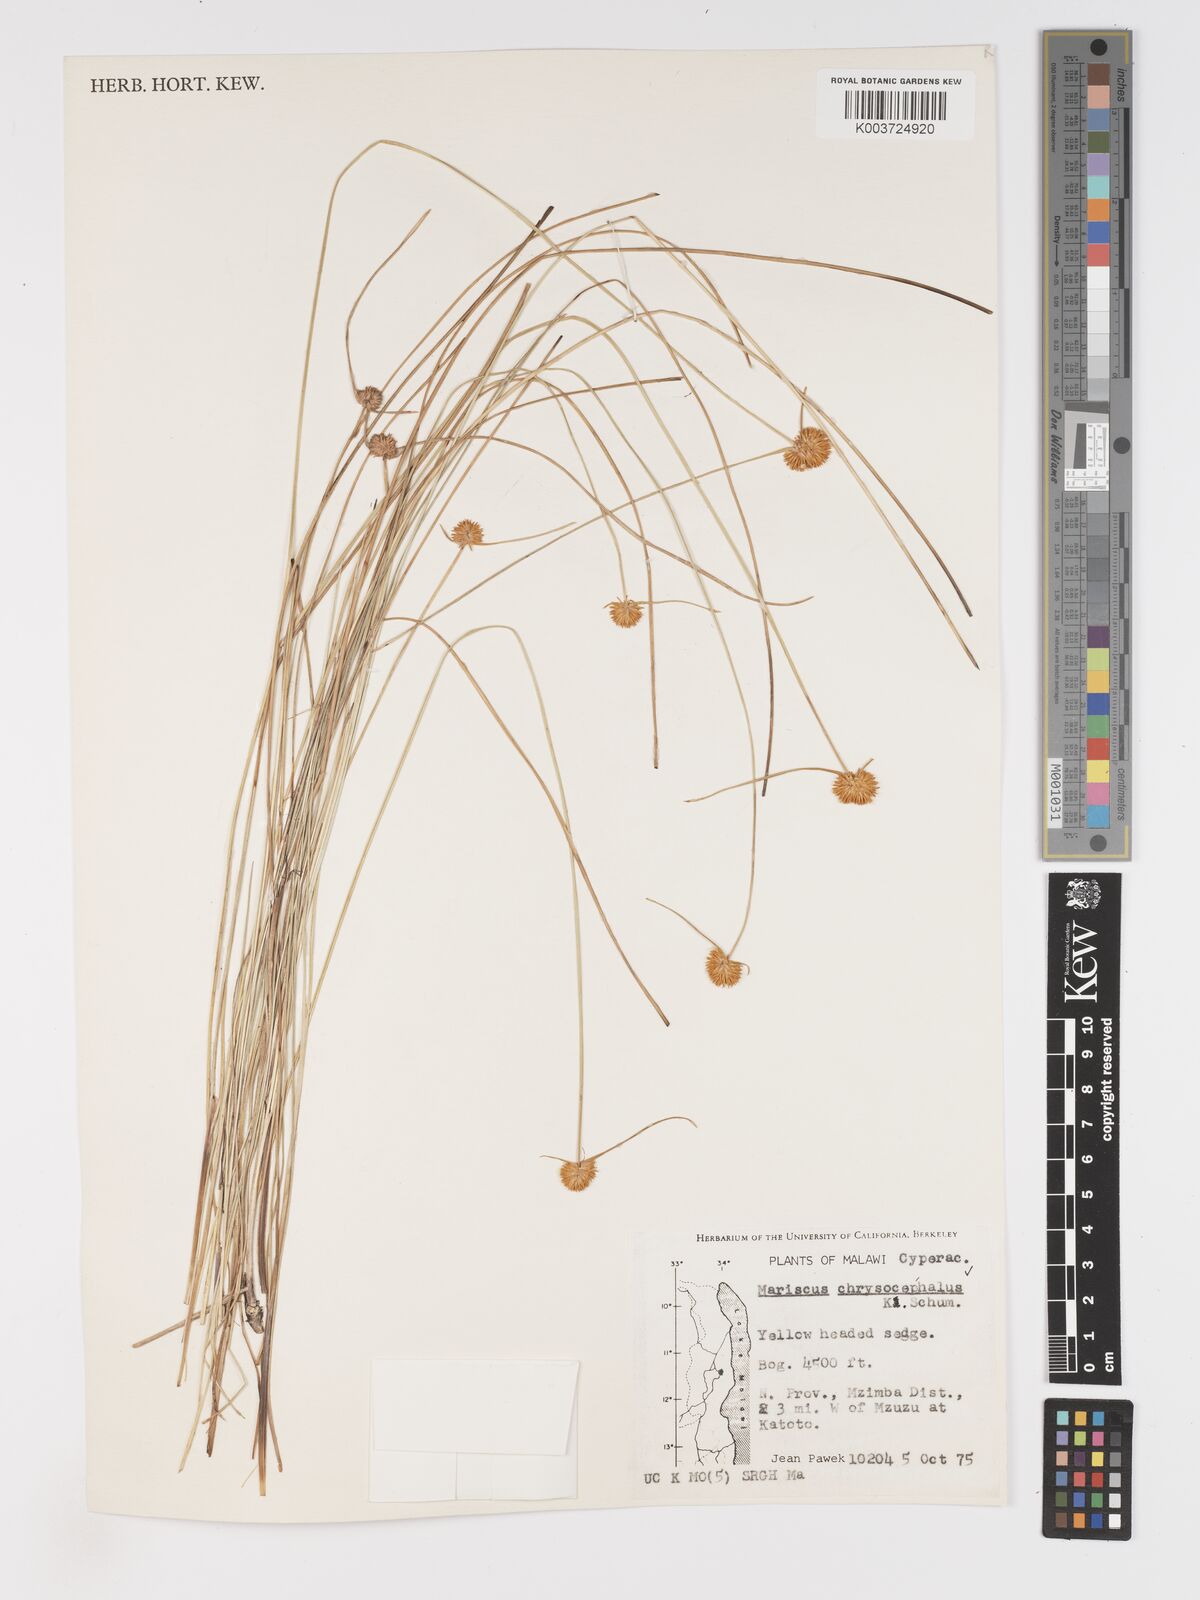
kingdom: Plantae
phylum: Tracheophyta
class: Liliopsida
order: Poales
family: Cyperaceae
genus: Cyperus
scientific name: Cyperus chrysocephalus
